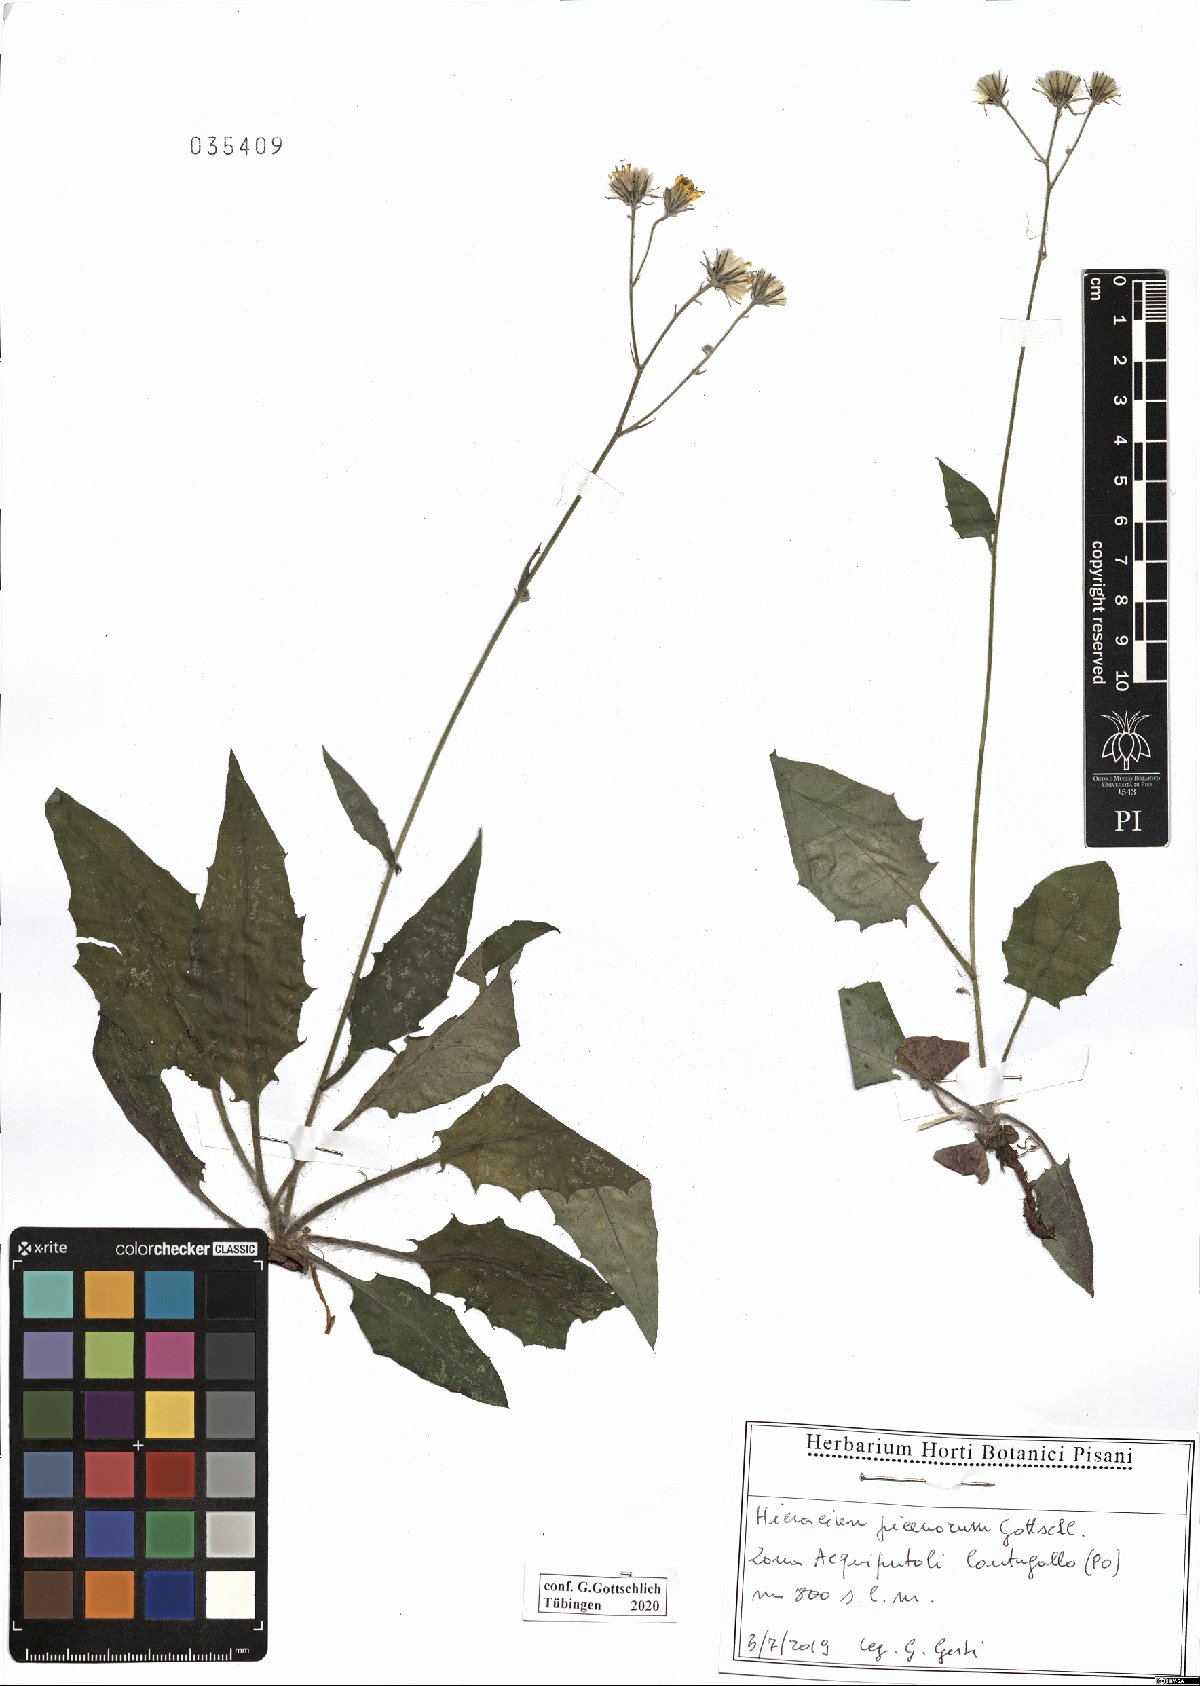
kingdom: Plantae
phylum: Tracheophyta
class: Magnoliopsida
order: Asterales
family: Asteraceae
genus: Hieracium
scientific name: Hieracium picenorum
